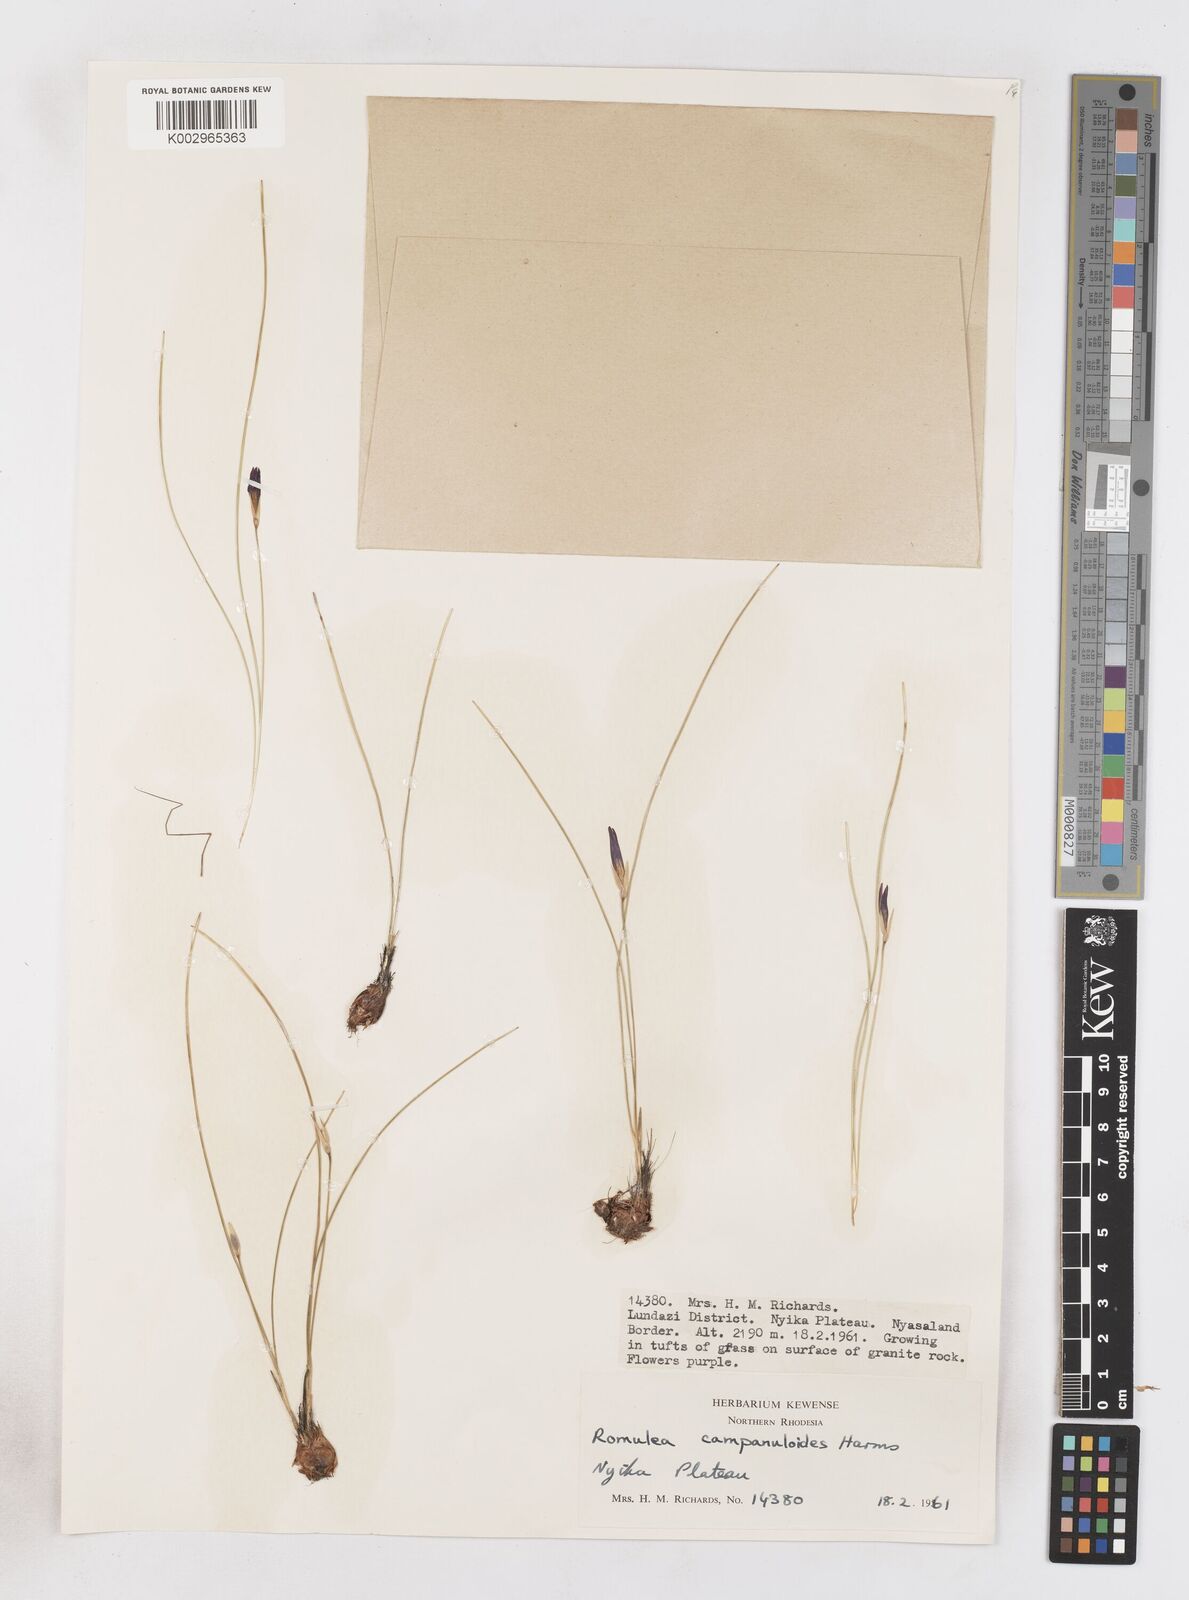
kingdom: Plantae
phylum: Tracheophyta
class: Liliopsida
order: Asparagales
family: Iridaceae
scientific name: Iridaceae
